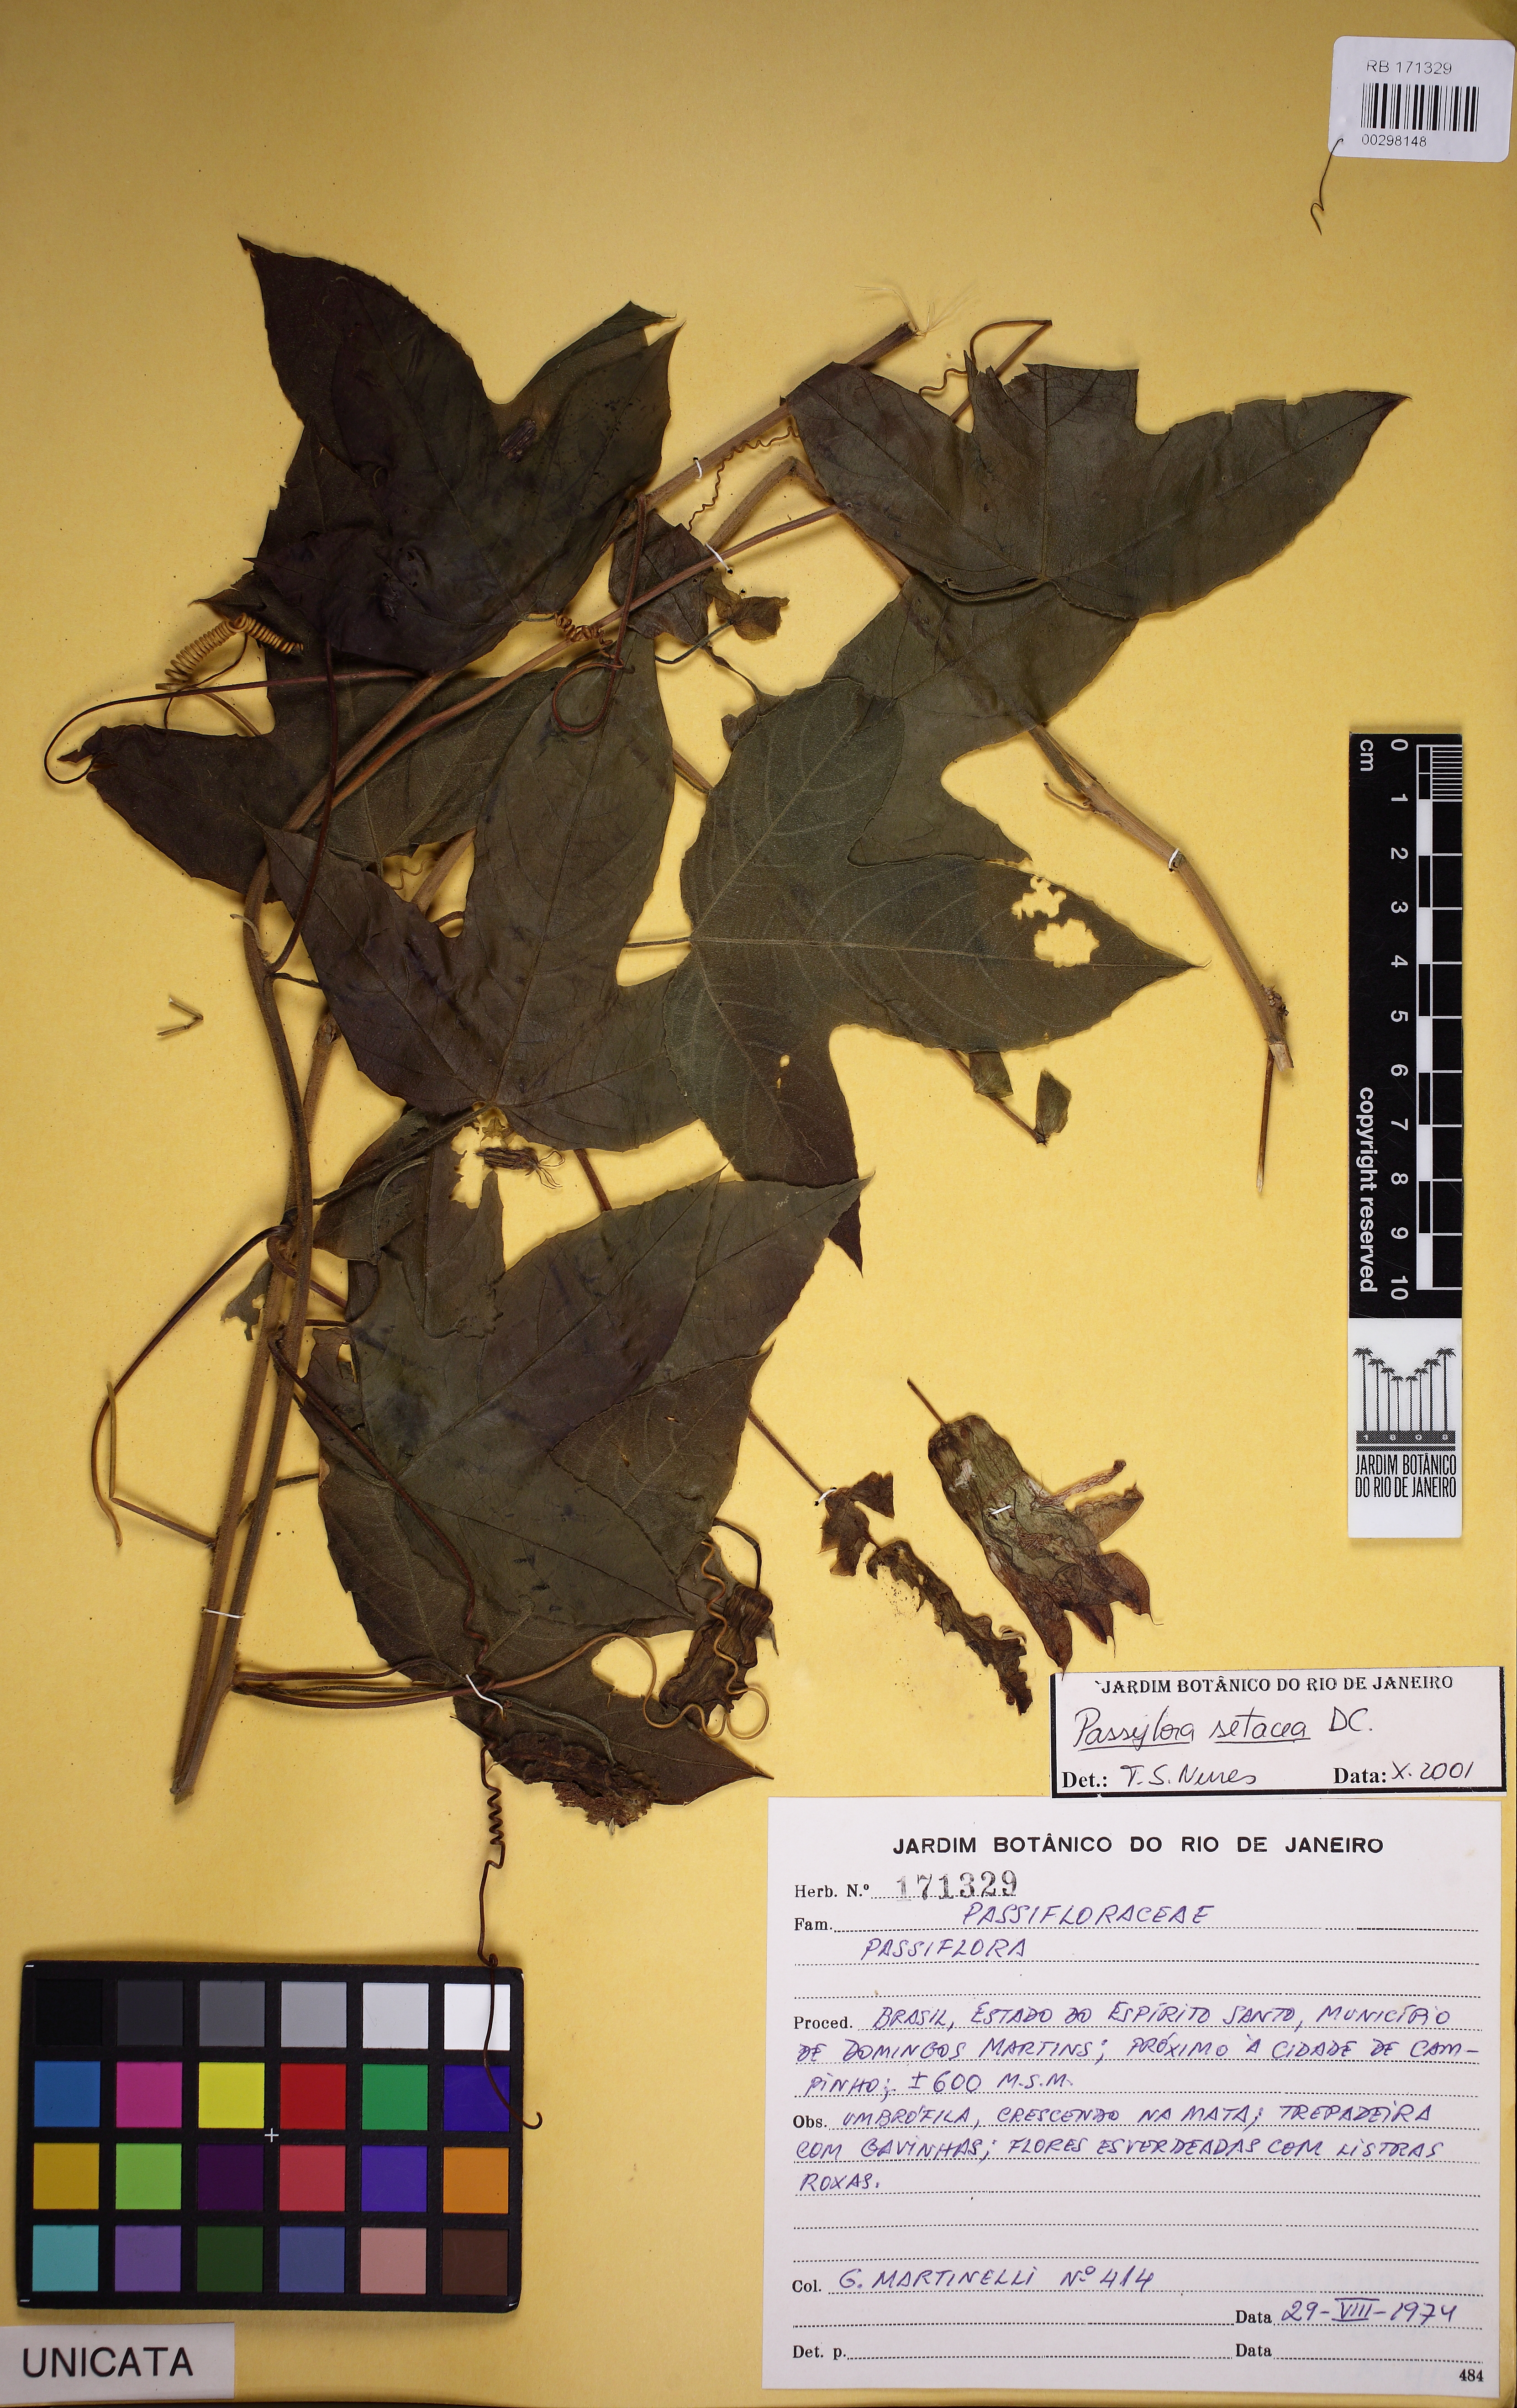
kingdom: Plantae
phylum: Tracheophyta
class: Magnoliopsida
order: Malpighiales
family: Passifloraceae
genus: Passiflora
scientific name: Passiflora setacea
